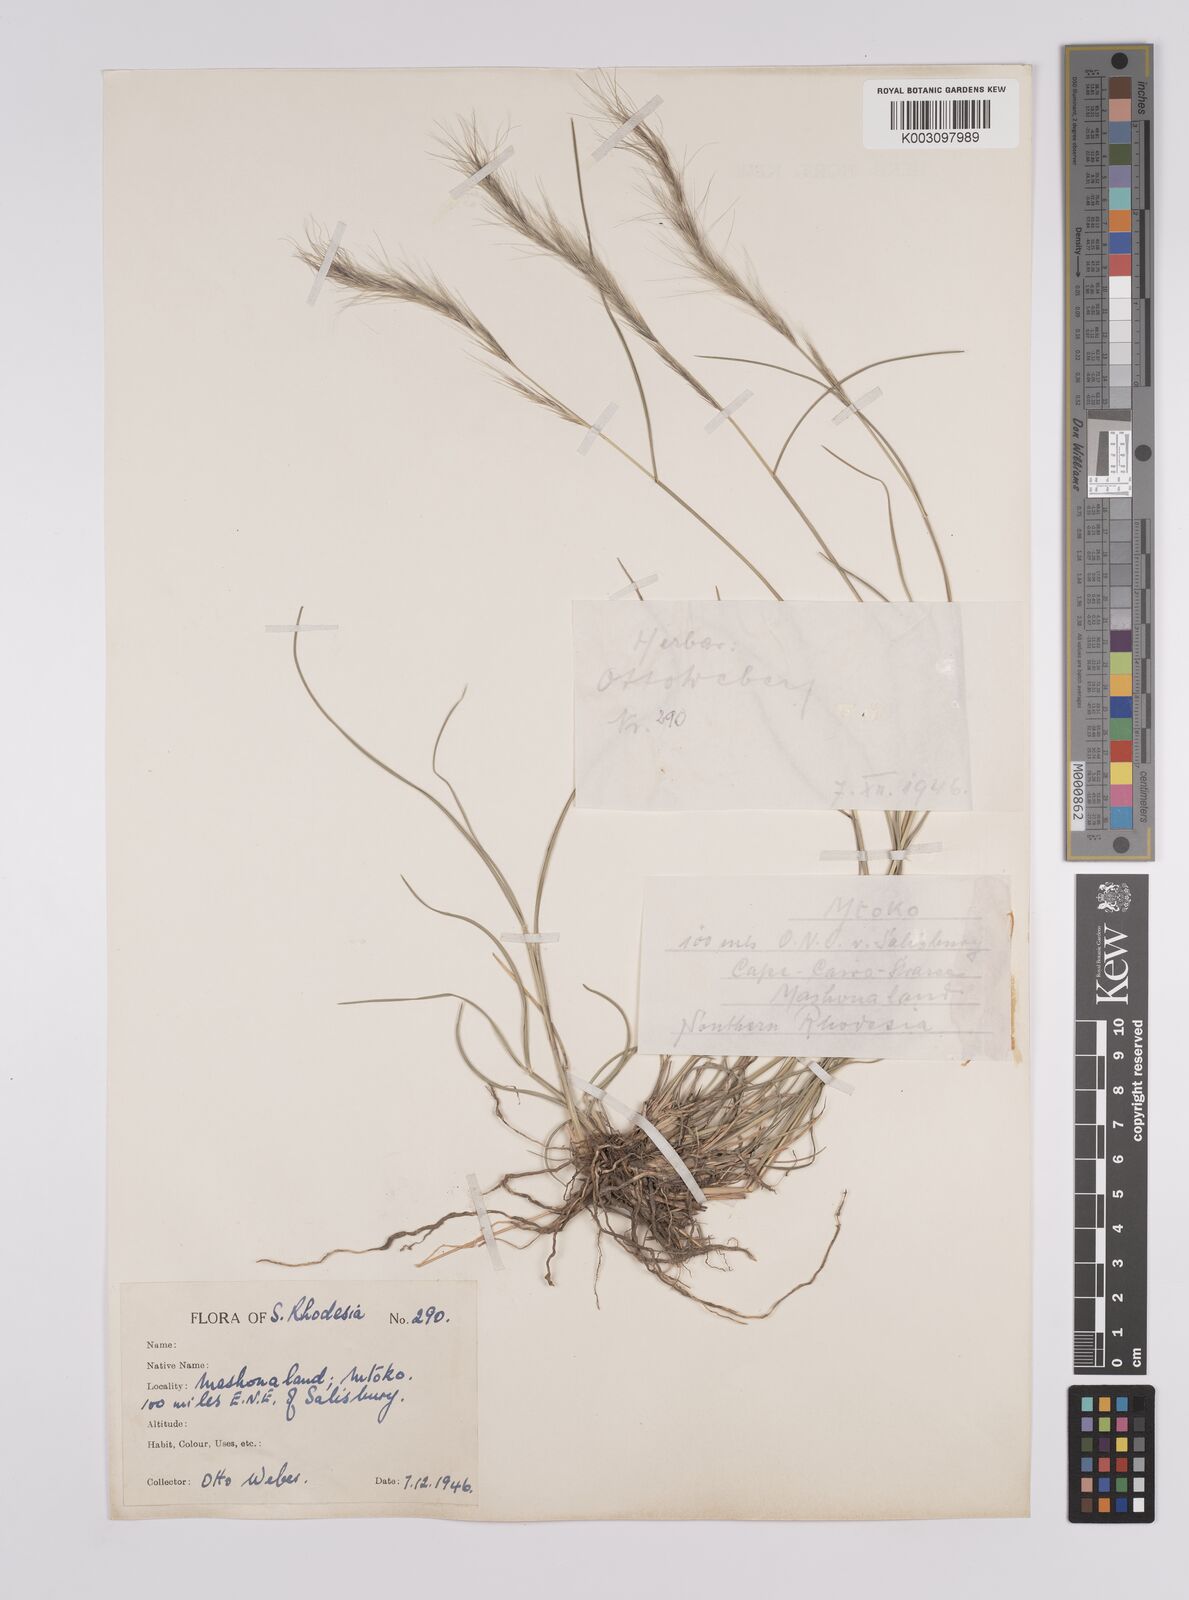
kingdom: Plantae
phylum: Tracheophyta
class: Liliopsida
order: Poales
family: Poaceae
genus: Aristida
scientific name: Aristida congesta
